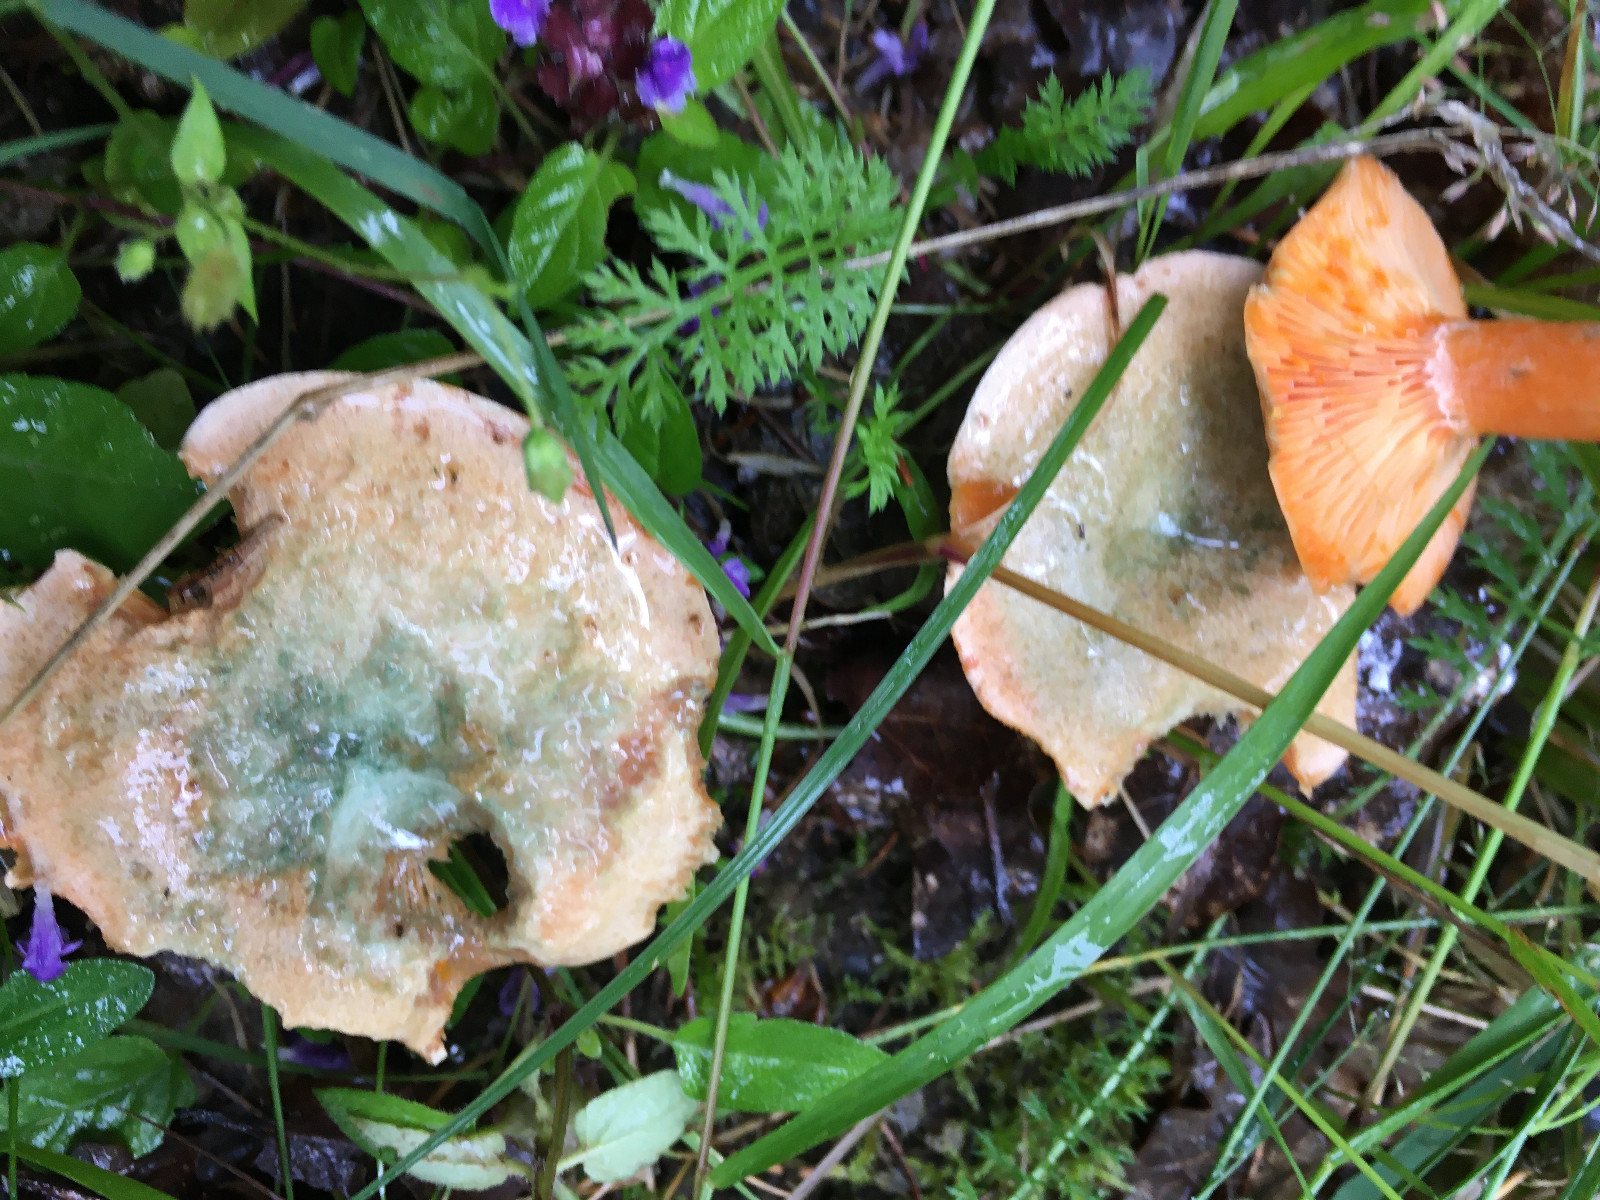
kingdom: Fungi
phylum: Basidiomycota
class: Agaricomycetes
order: Russulales
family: Russulaceae
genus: Lactarius
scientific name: Lactarius deterrimus
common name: gran-mælkehat
